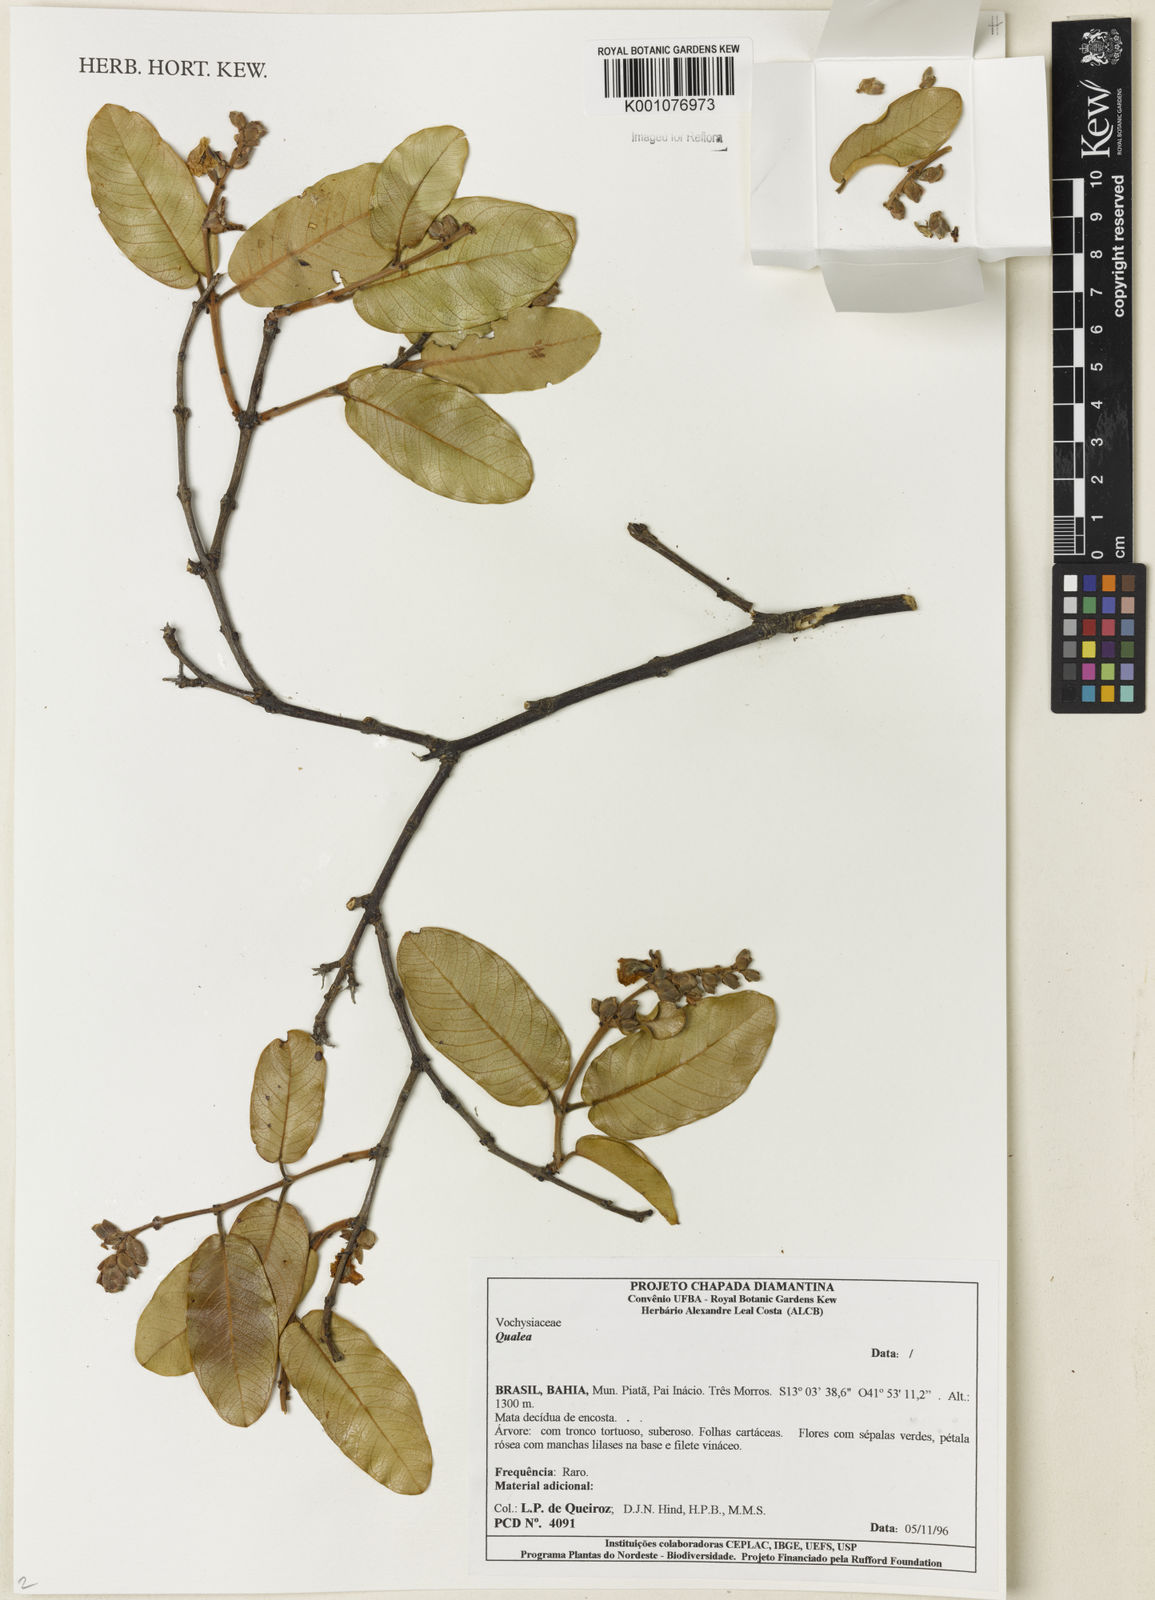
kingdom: Plantae
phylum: Tracheophyta
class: Magnoliopsida
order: Myrtales
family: Vochysiaceae
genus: Qualea
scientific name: Qualea
